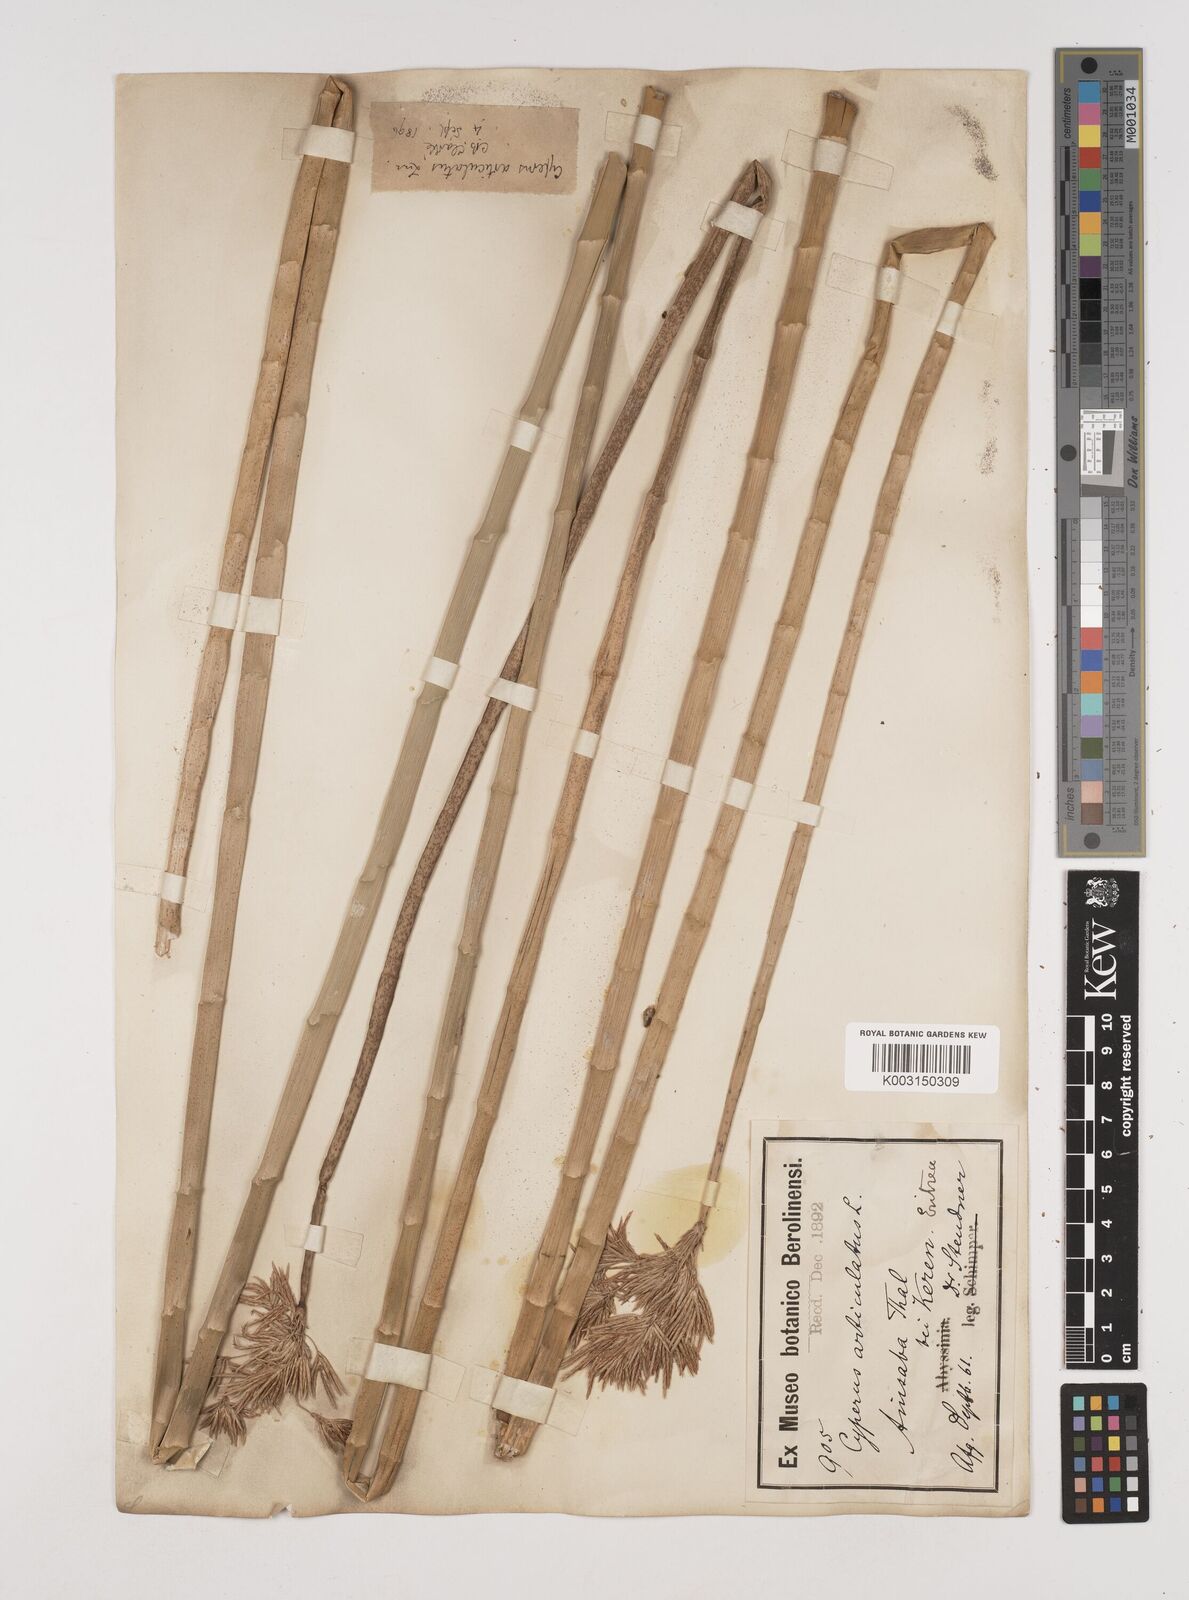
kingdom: Plantae
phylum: Tracheophyta
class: Liliopsida
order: Poales
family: Cyperaceae
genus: Cyperus
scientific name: Cyperus articulatus
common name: Jointed flatsedge
